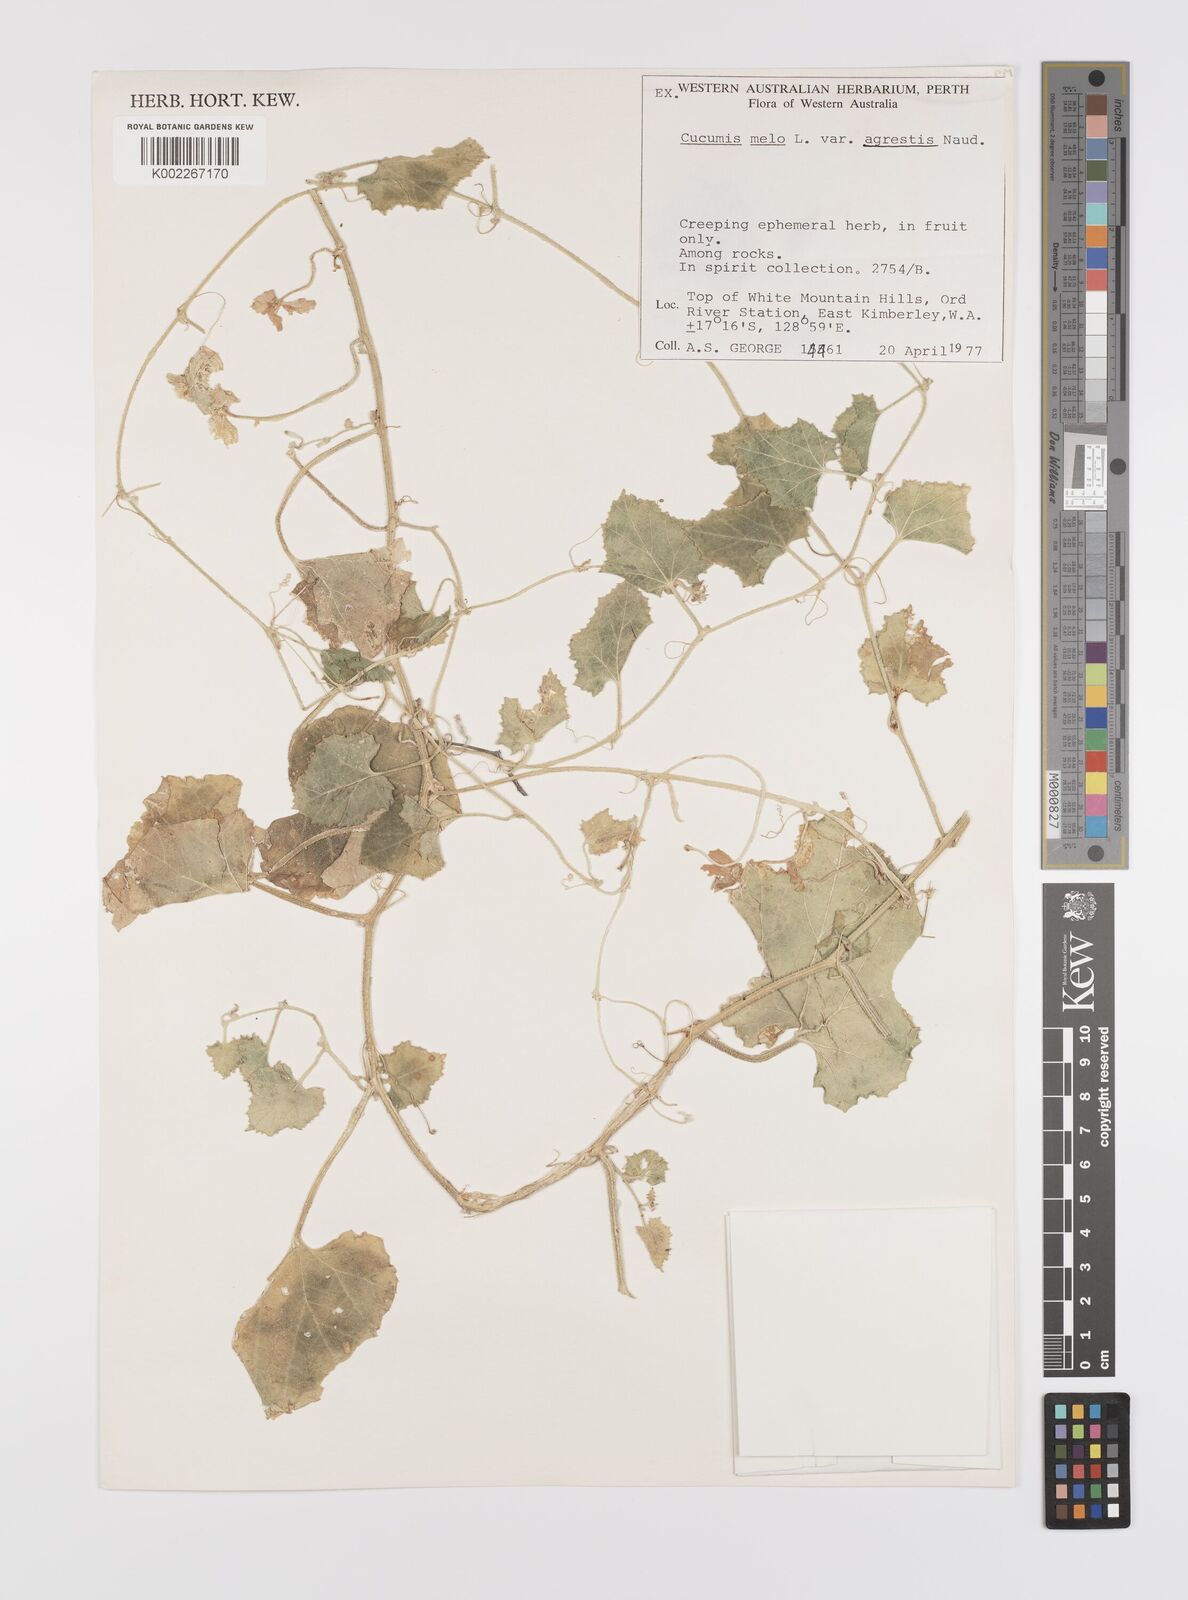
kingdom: Plantae
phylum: Tracheophyta
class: Magnoliopsida
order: Cucurbitales
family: Cucurbitaceae
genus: Cucumis
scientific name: Cucumis
